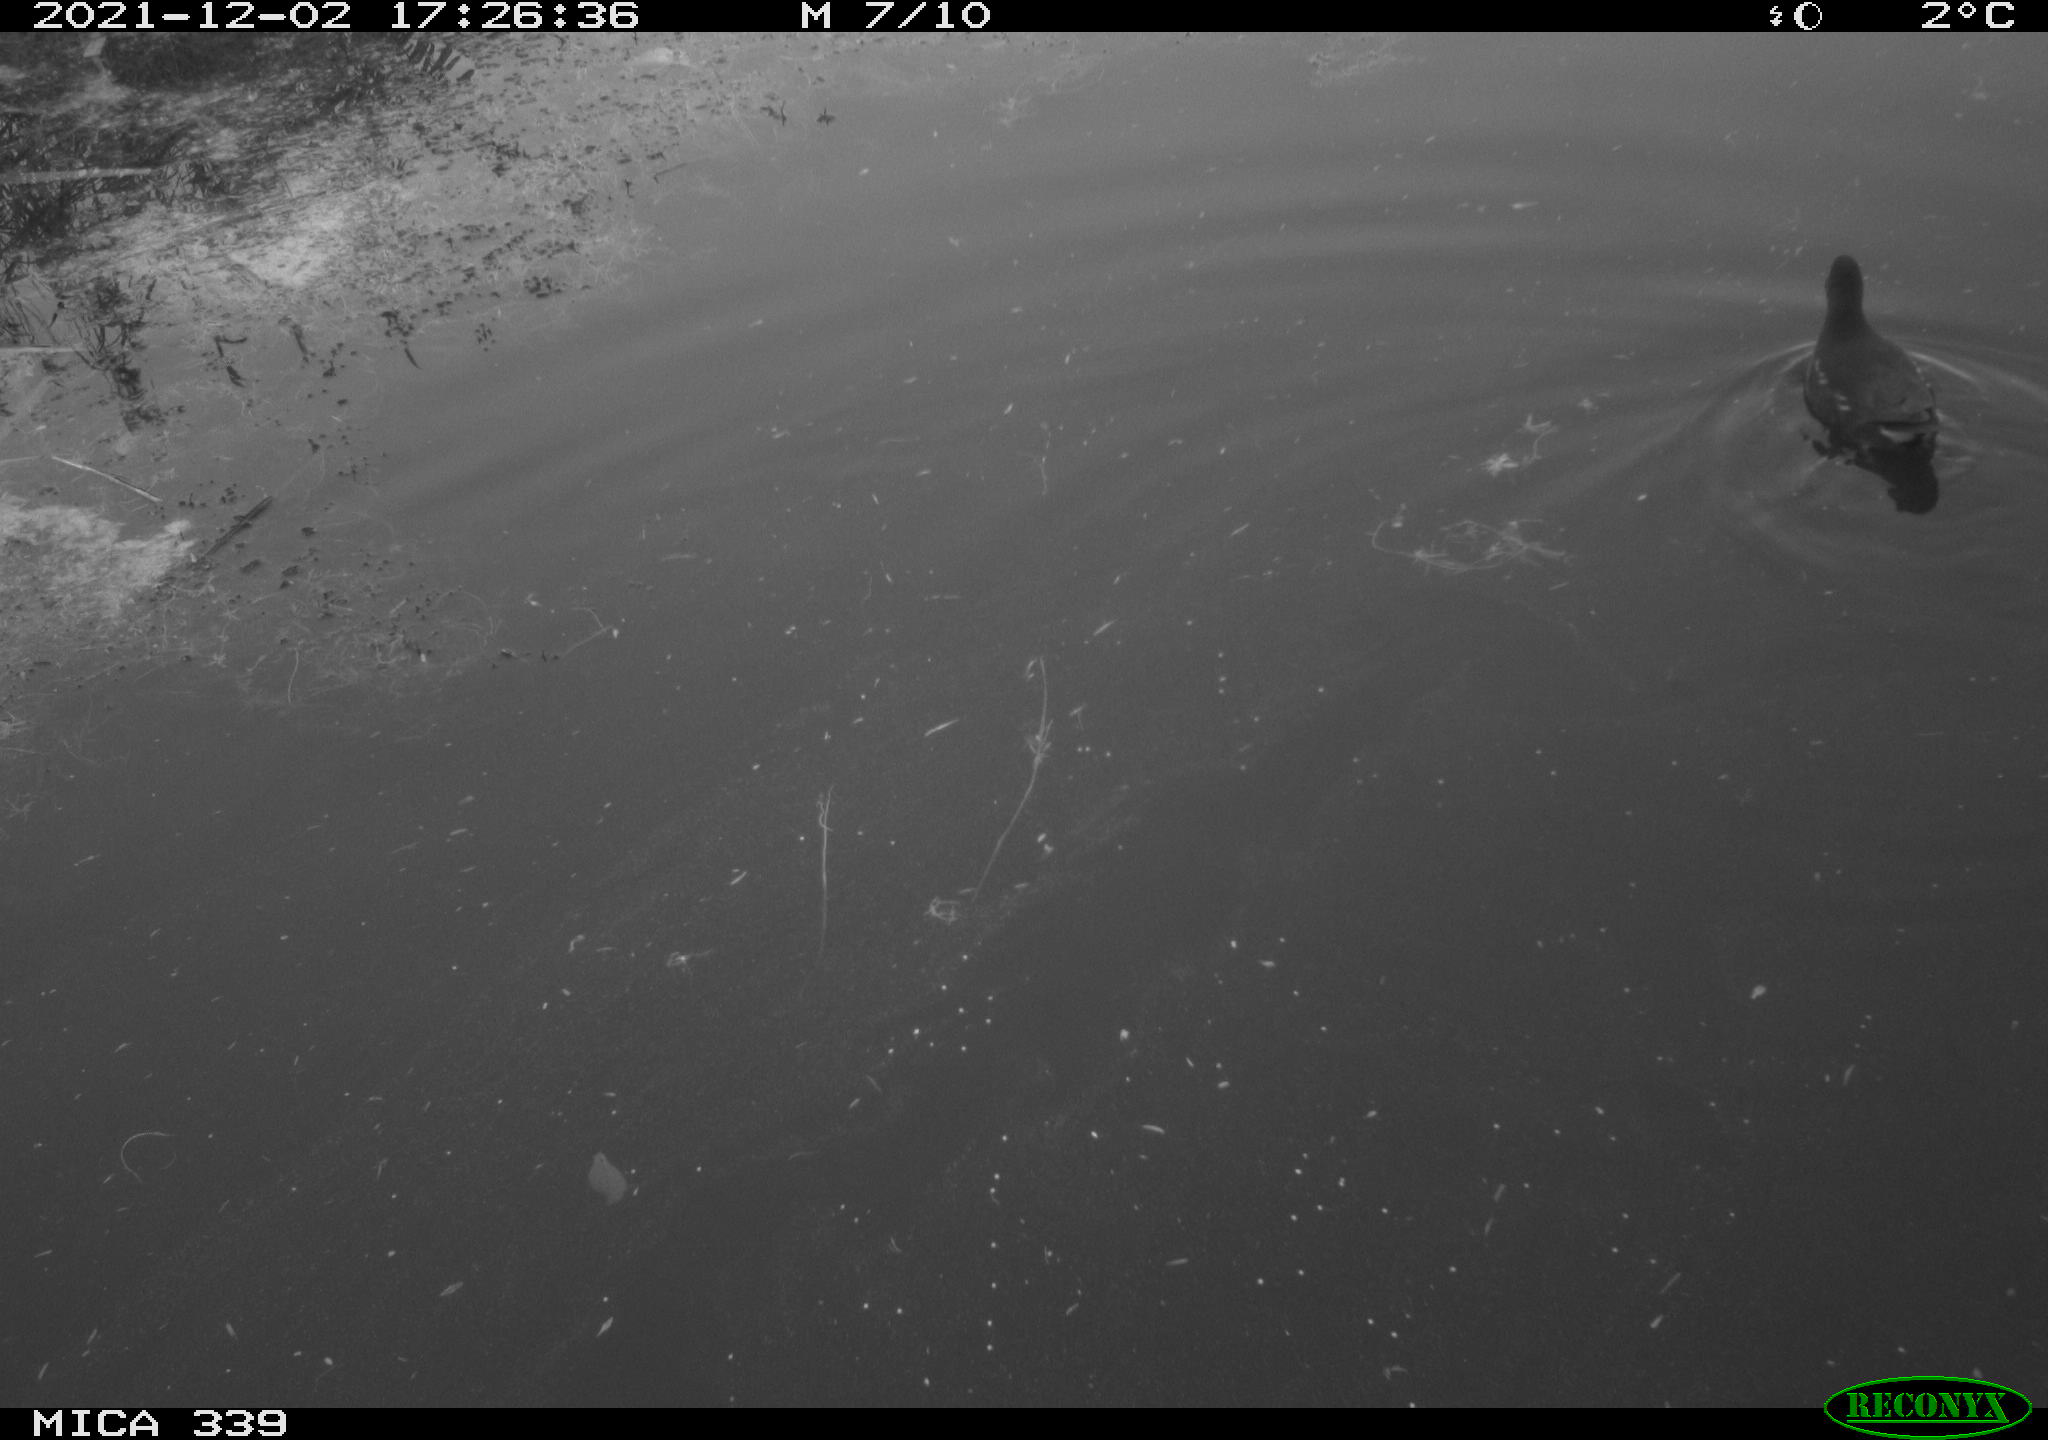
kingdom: Animalia
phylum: Chordata
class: Aves
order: Gruiformes
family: Rallidae
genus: Gallinula
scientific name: Gallinula chloropus
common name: Common moorhen
